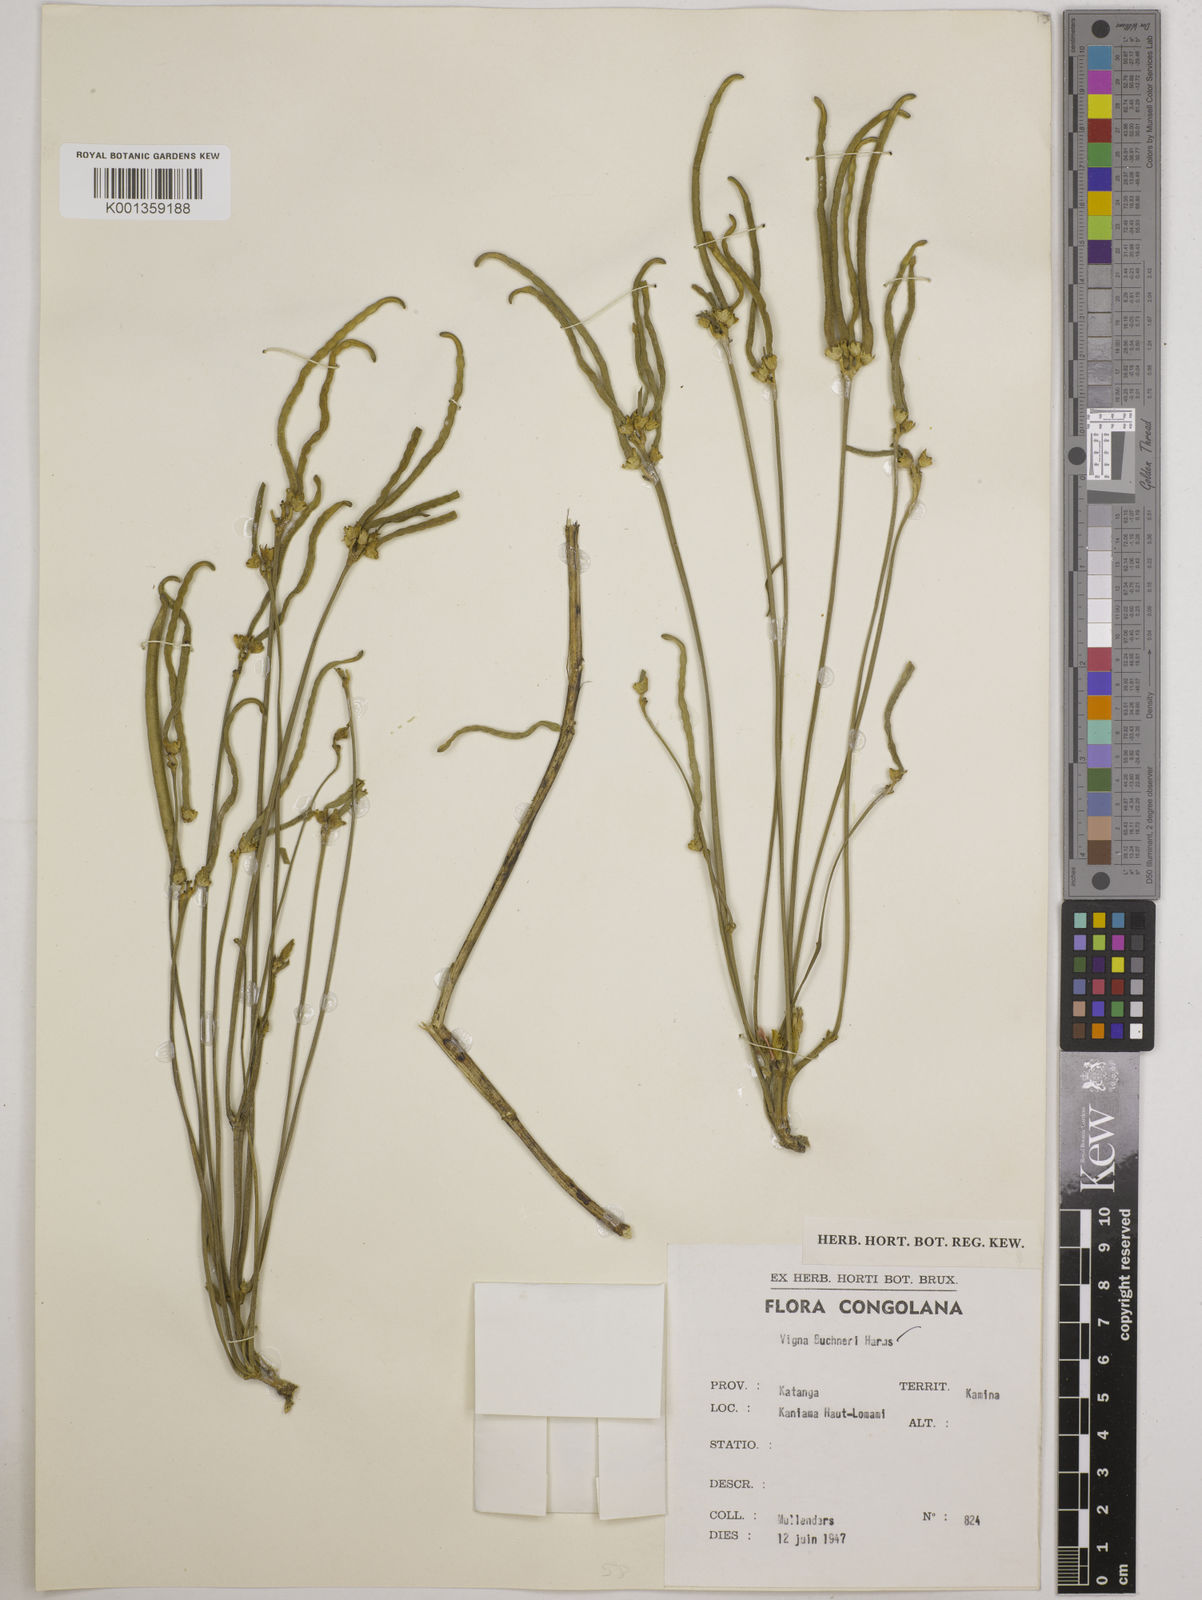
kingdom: Plantae
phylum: Tracheophyta
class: Magnoliopsida
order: Fabales
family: Fabaceae
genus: Vigna
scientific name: Vigna
